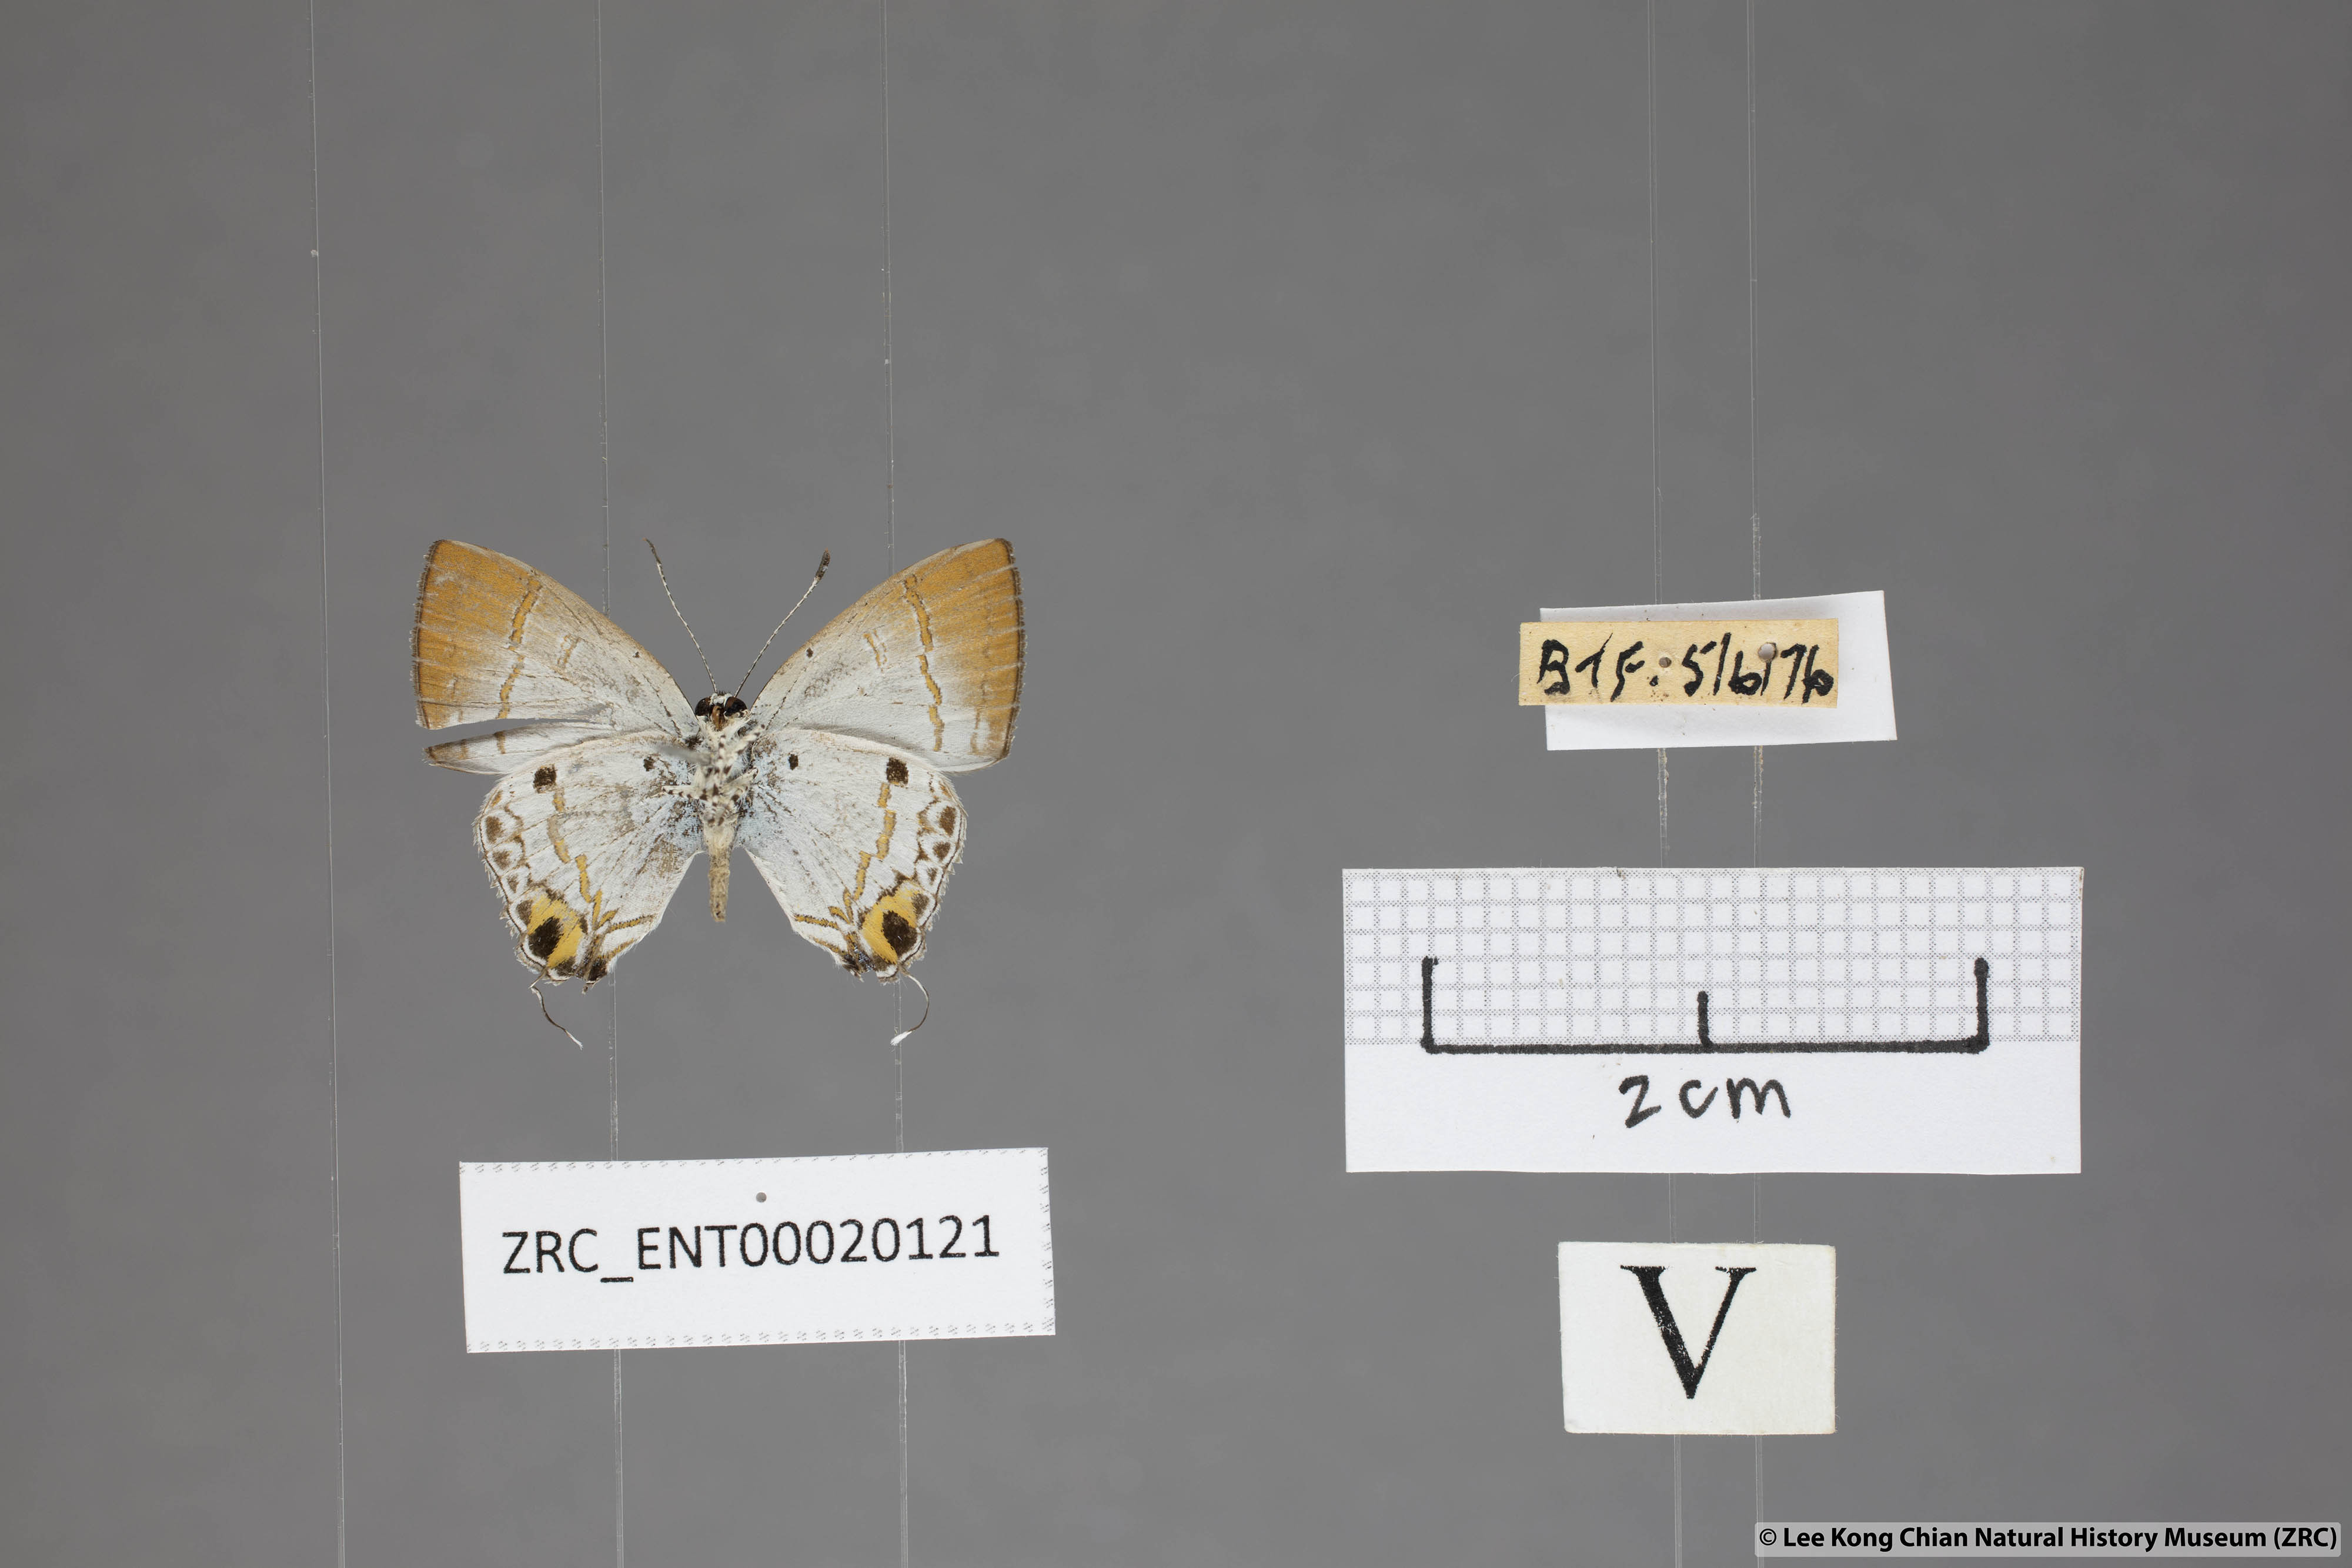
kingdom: Animalia
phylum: Arthropoda
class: Insecta
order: Lepidoptera
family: Lycaenidae
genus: Chliaria
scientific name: Chliaria othona
